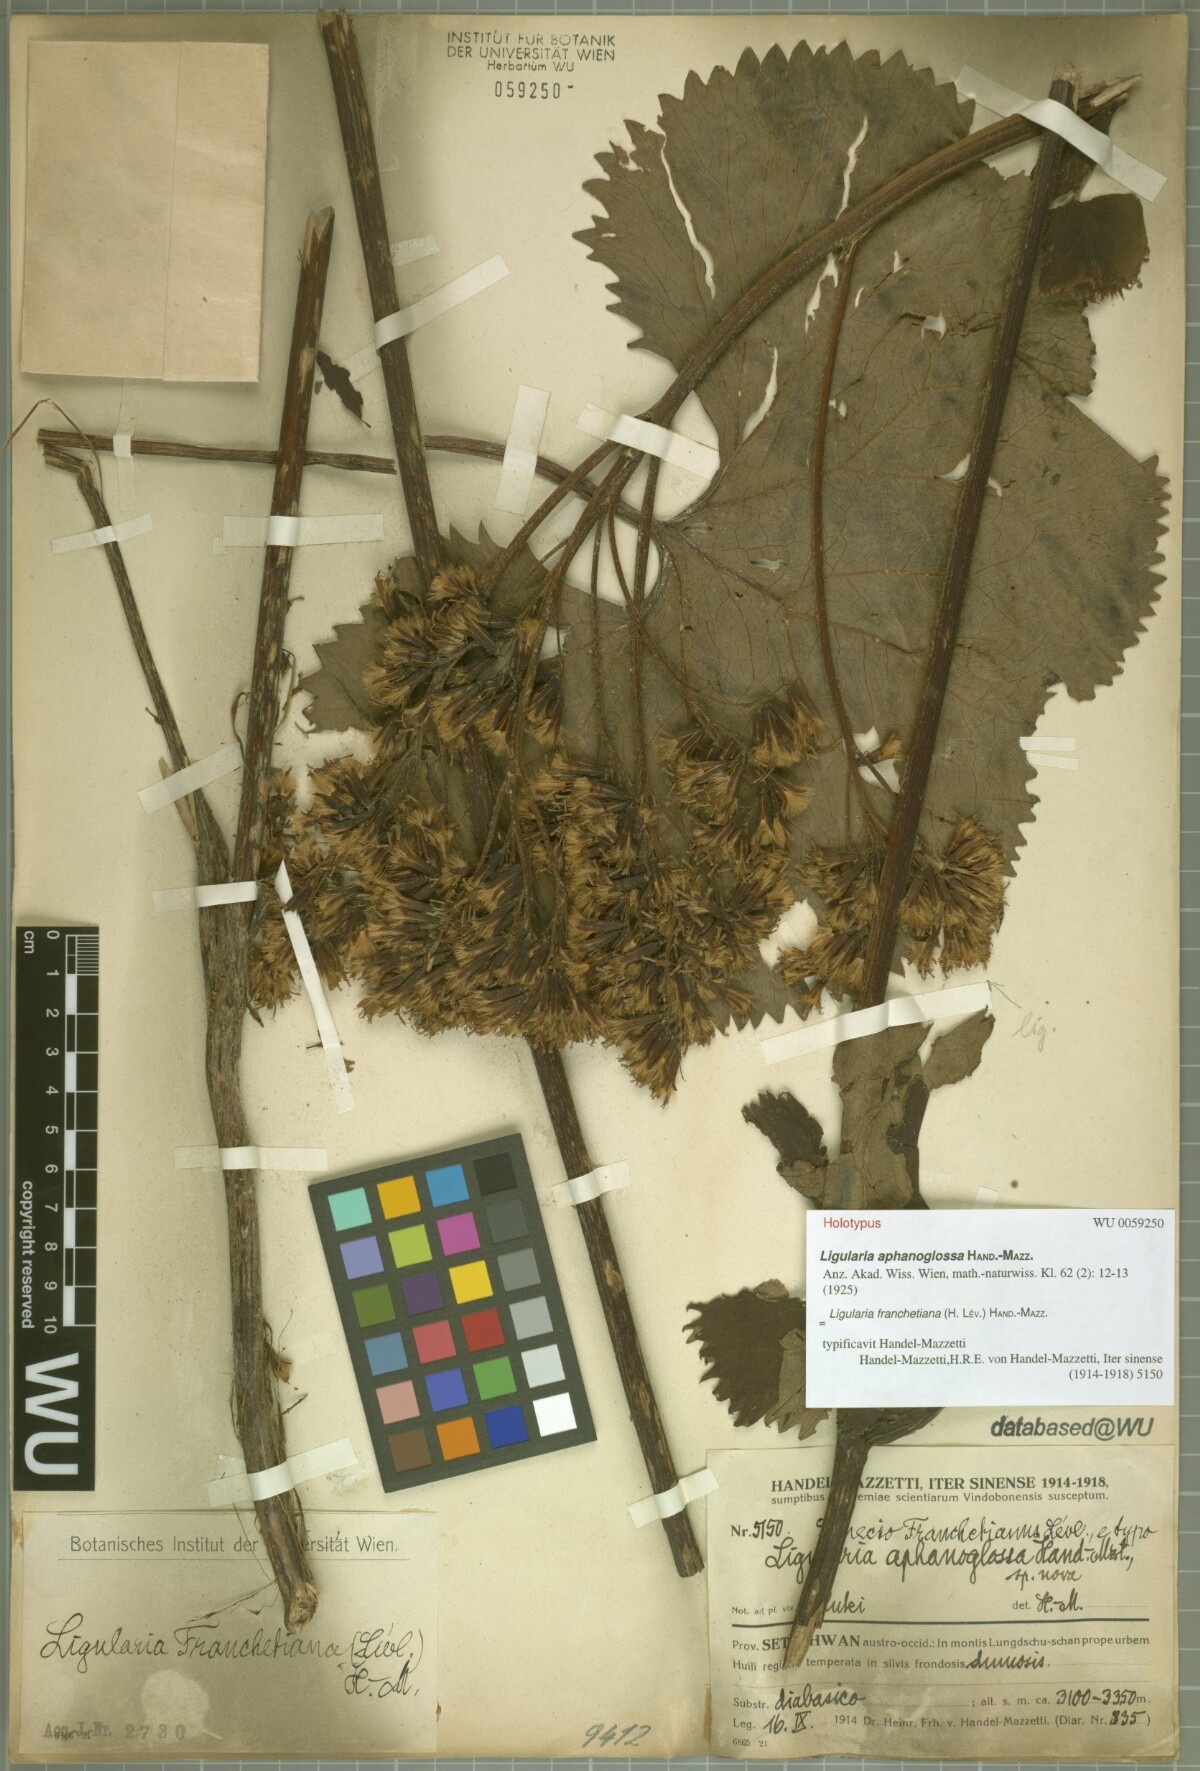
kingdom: Plantae
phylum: Tracheophyta
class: Magnoliopsida
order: Asterales
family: Asteraceae
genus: Ligularia
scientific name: Ligularia franchetiana
